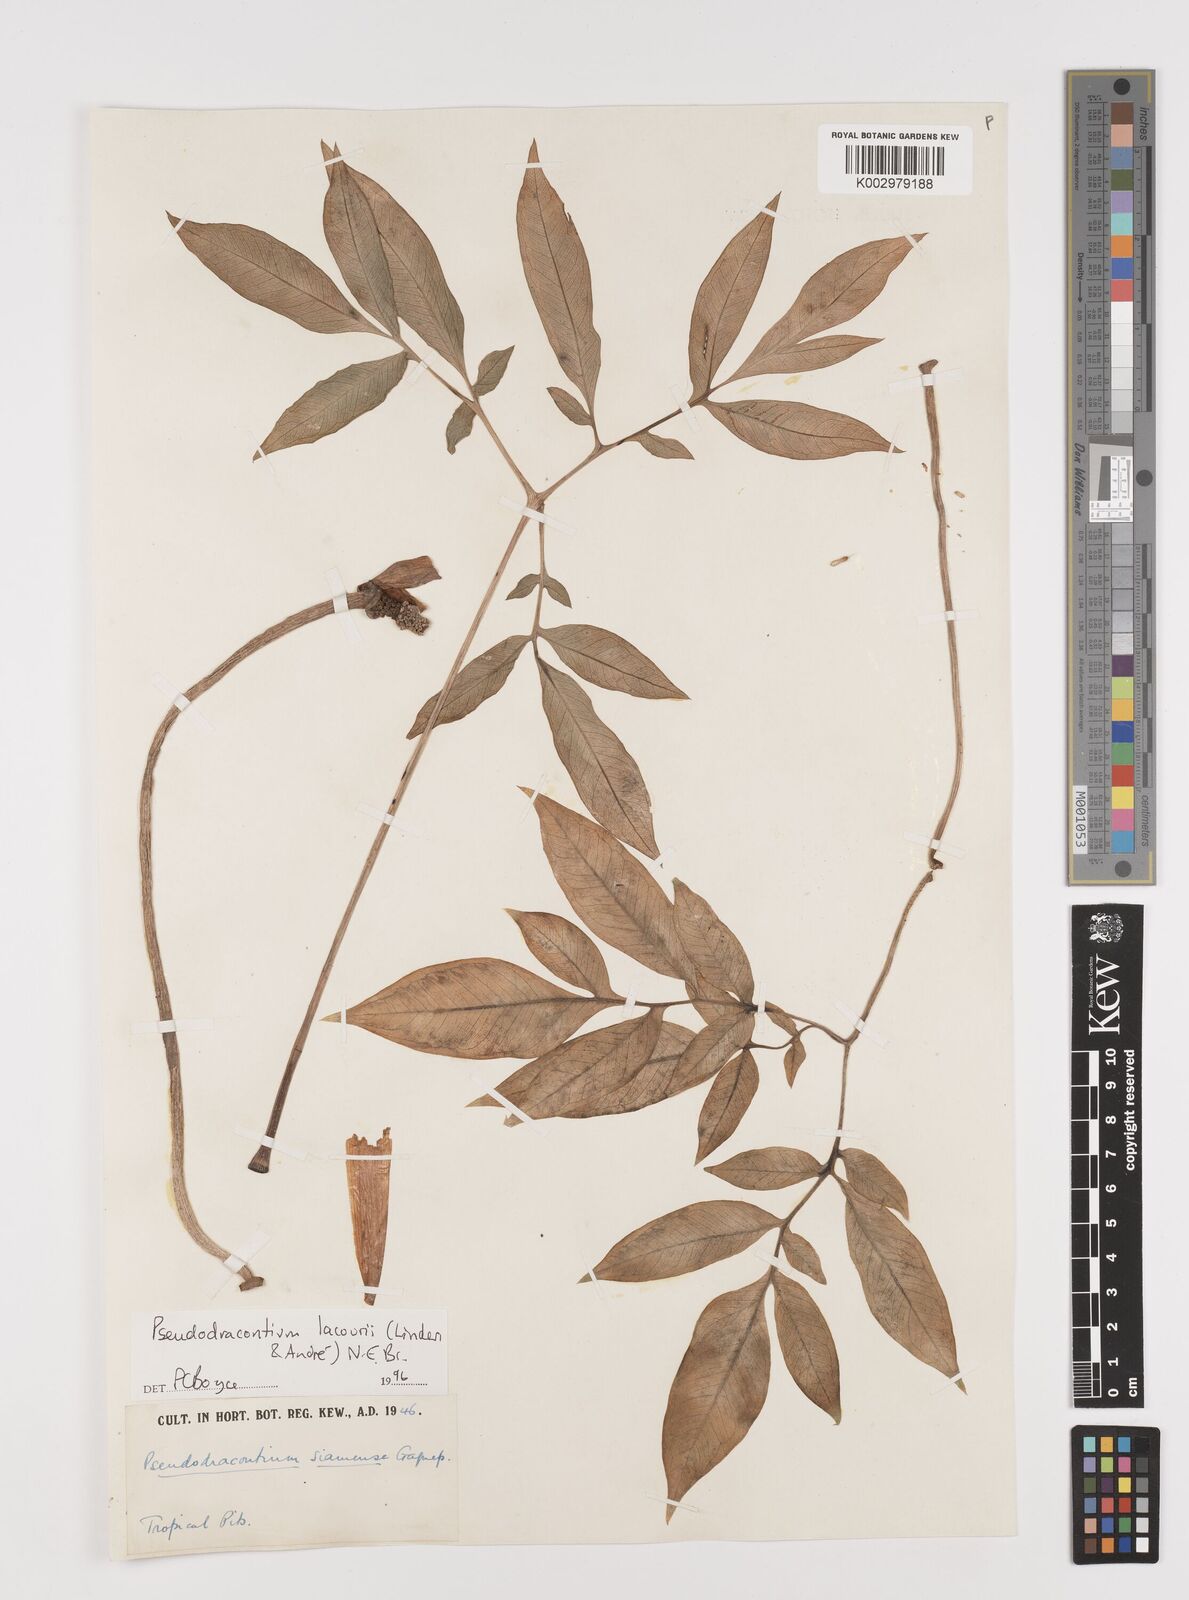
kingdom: Plantae
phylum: Tracheophyta
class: Liliopsida
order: Alismatales
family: Araceae
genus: Amorphophallus
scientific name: Amorphophallus lacourii
